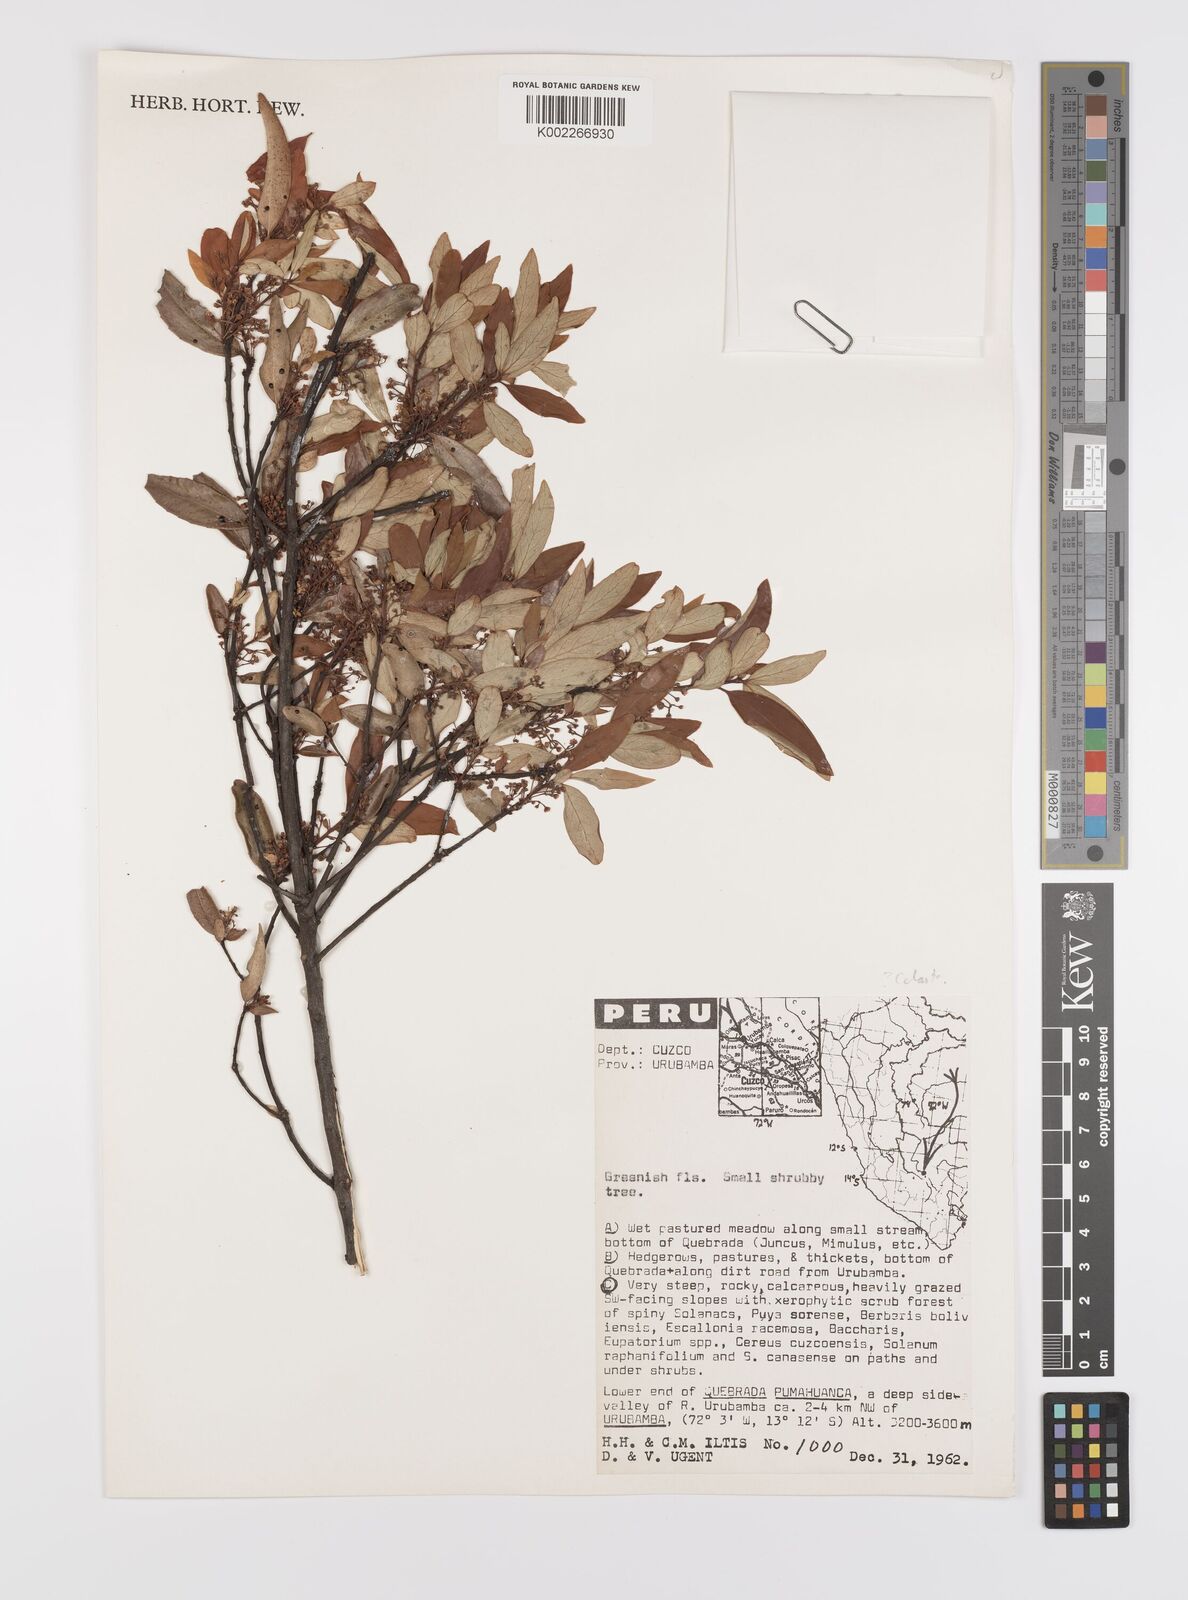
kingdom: Plantae
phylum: Tracheophyta
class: Magnoliopsida
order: Celastrales
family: Celastraceae
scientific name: Celastraceae
